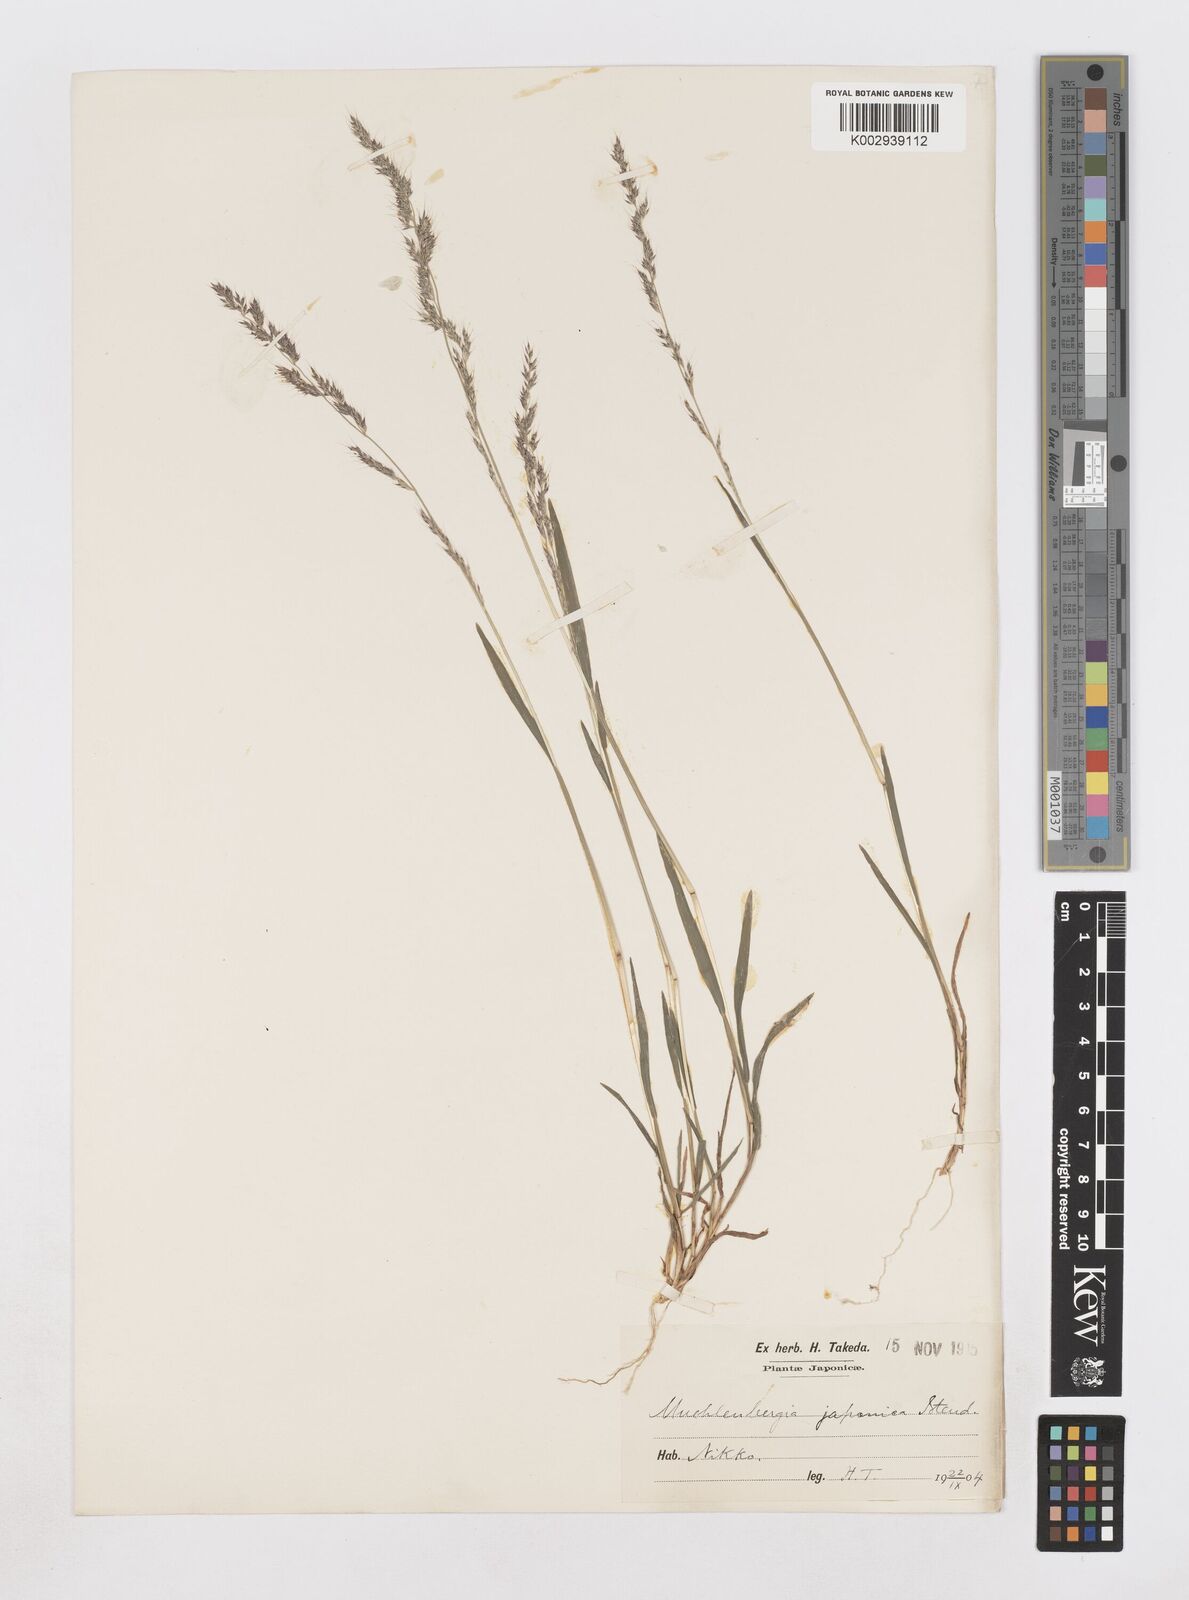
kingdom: Plantae
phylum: Tracheophyta
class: Liliopsida
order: Poales
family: Poaceae
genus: Muhlenbergia
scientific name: Muhlenbergia japonica
